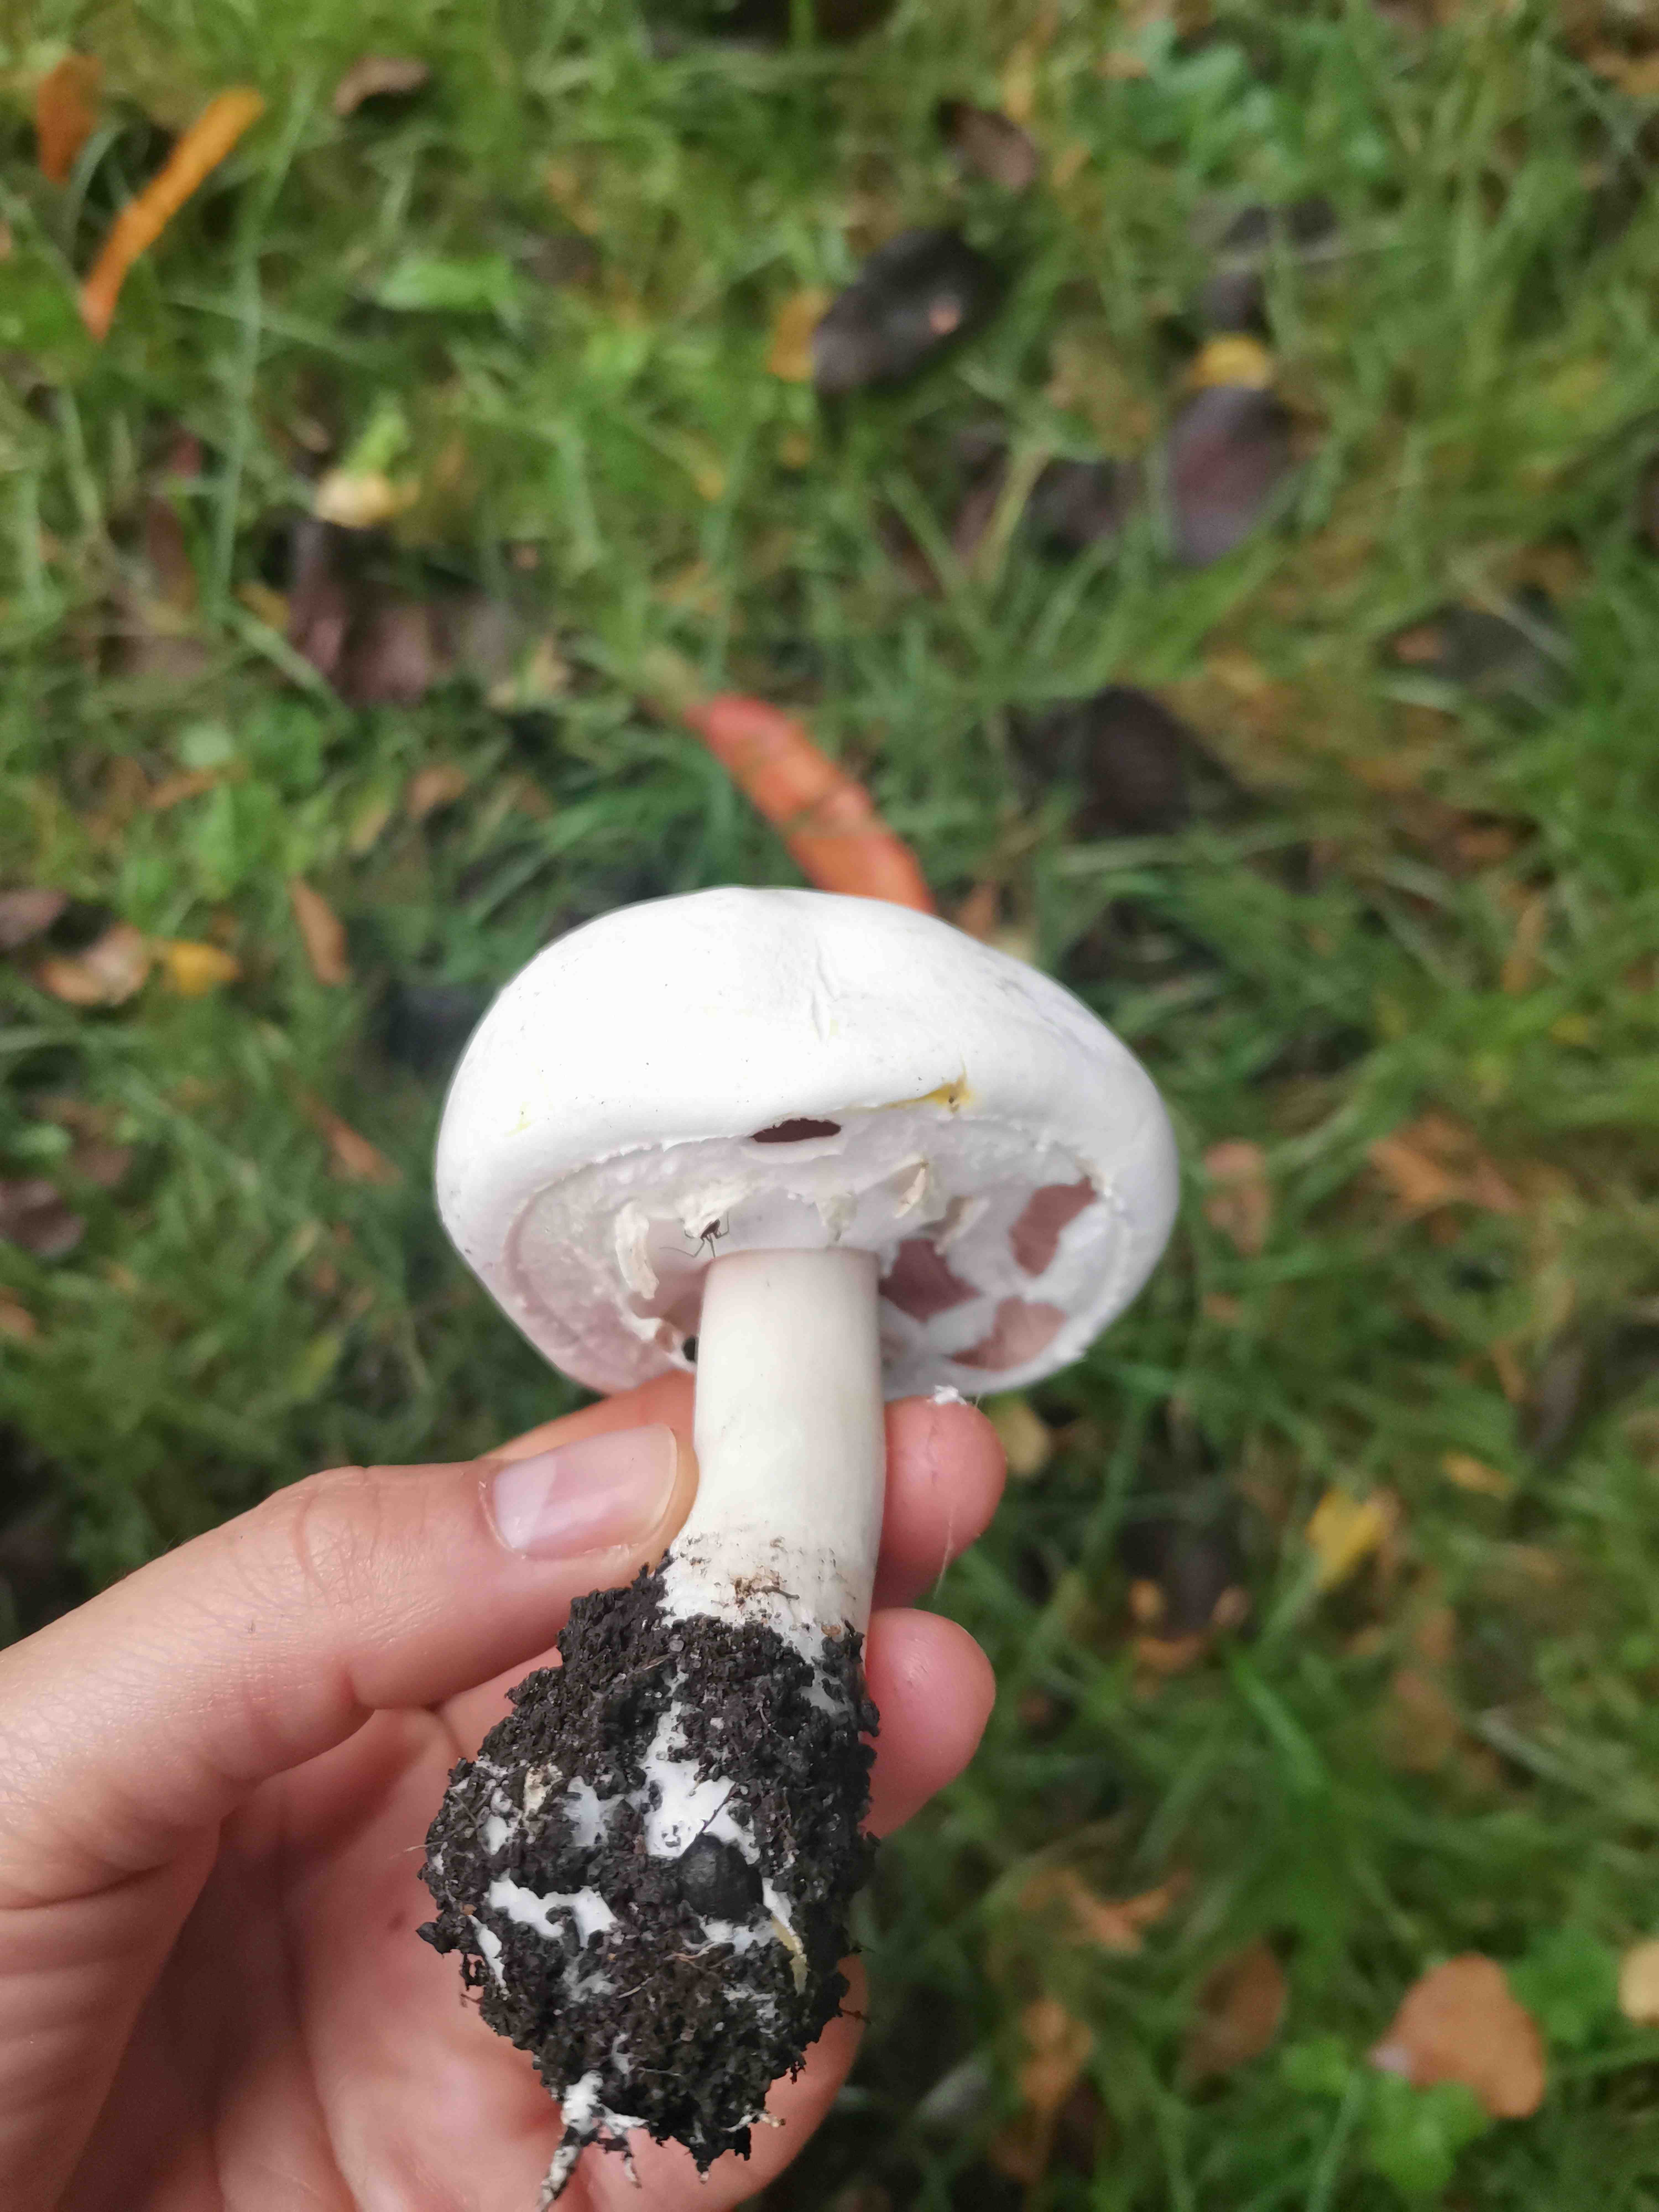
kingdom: Fungi
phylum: Basidiomycota
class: Agaricomycetes
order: Agaricales
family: Agaricaceae
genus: Agaricus
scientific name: Agaricus xanthodermus
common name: karbol-champignon
